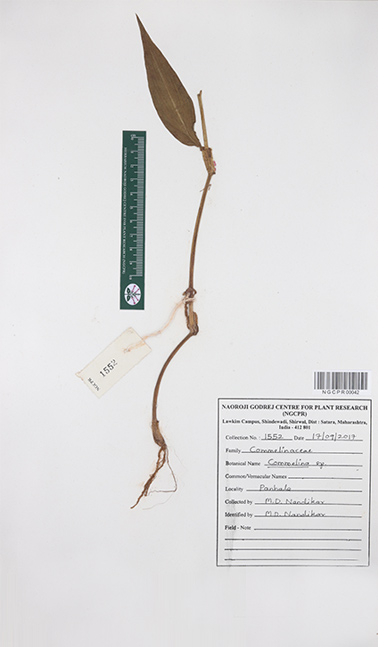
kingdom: Plantae
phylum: Tracheophyta
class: Liliopsida
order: Commelinales
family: Commelinaceae
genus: Commelina
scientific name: Commelina paludosa
